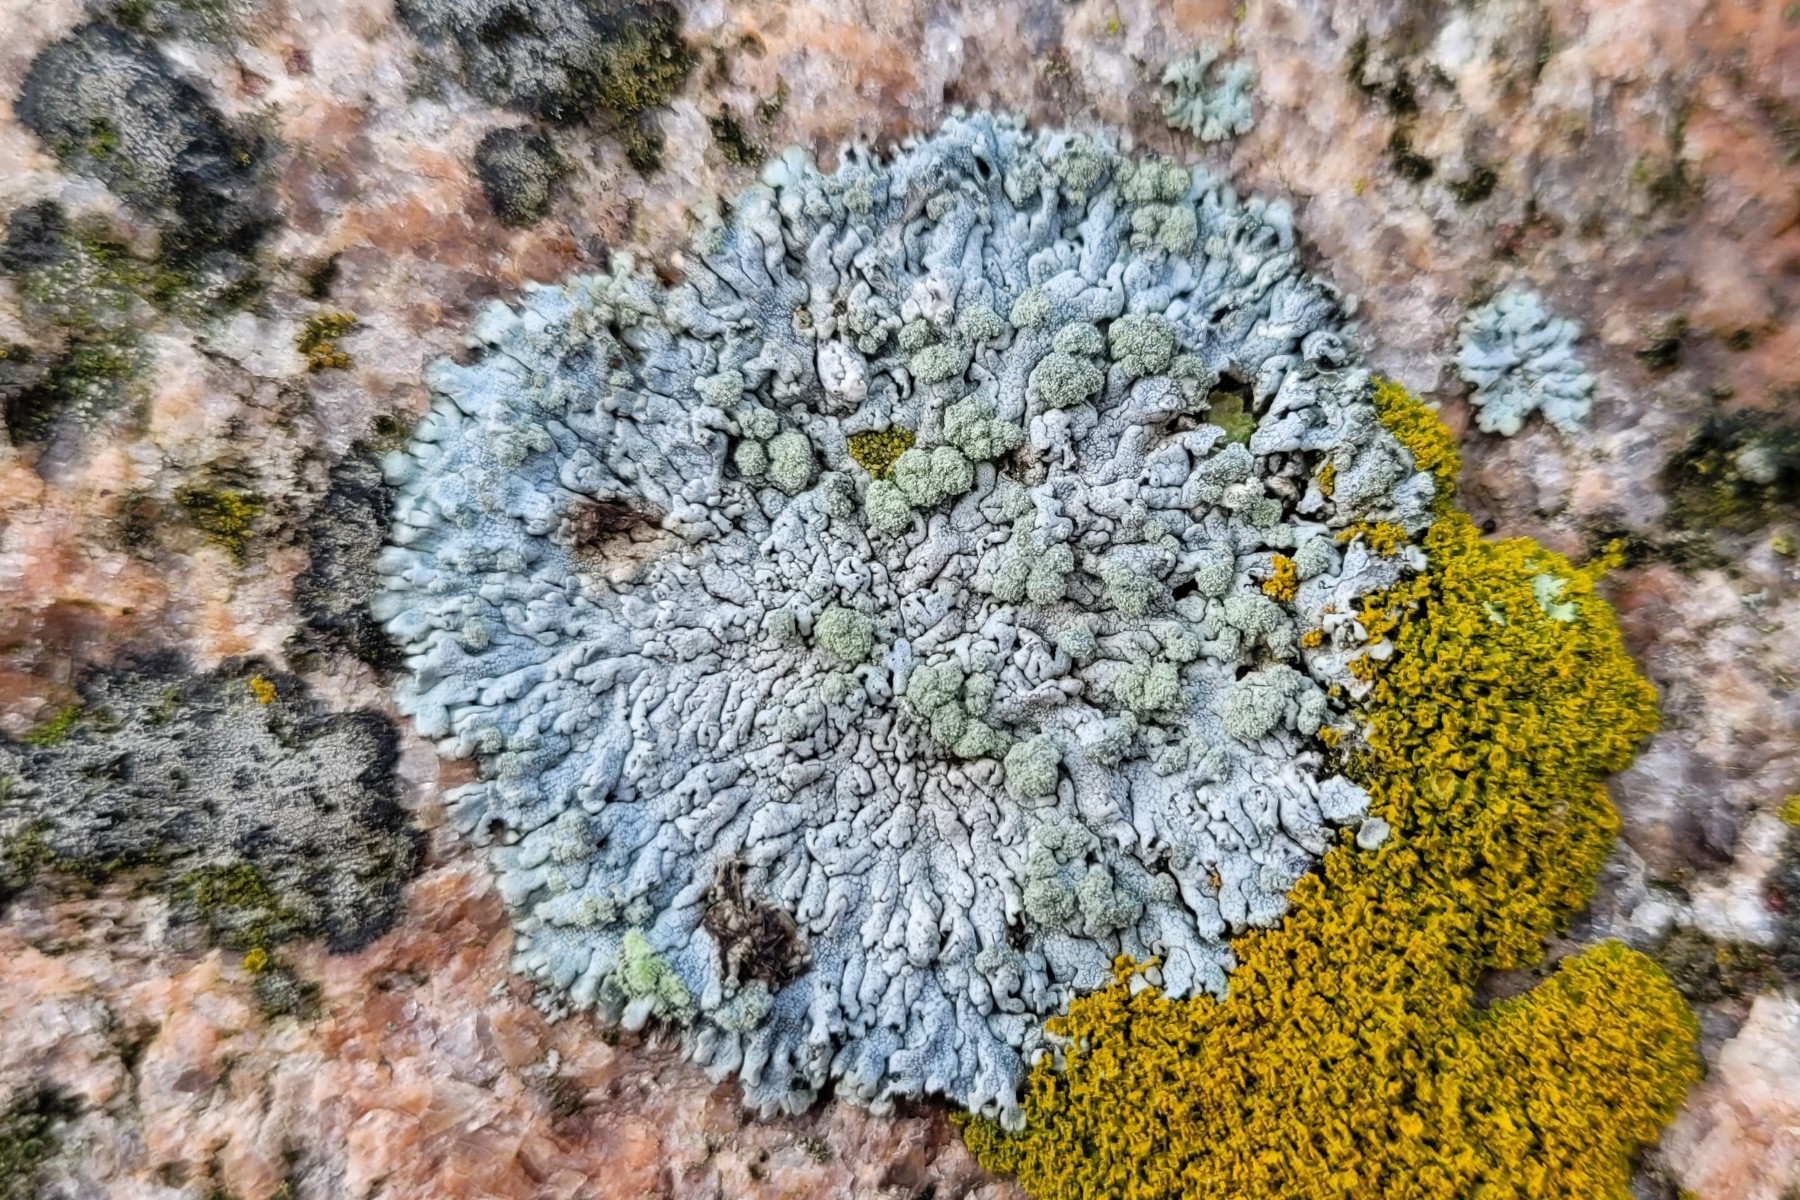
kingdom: Fungi
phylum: Ascomycota
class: Lecanoromycetes
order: Caliciales
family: Physciaceae
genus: Physcia
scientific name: Physcia caesia
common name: blågrå rosetlav
